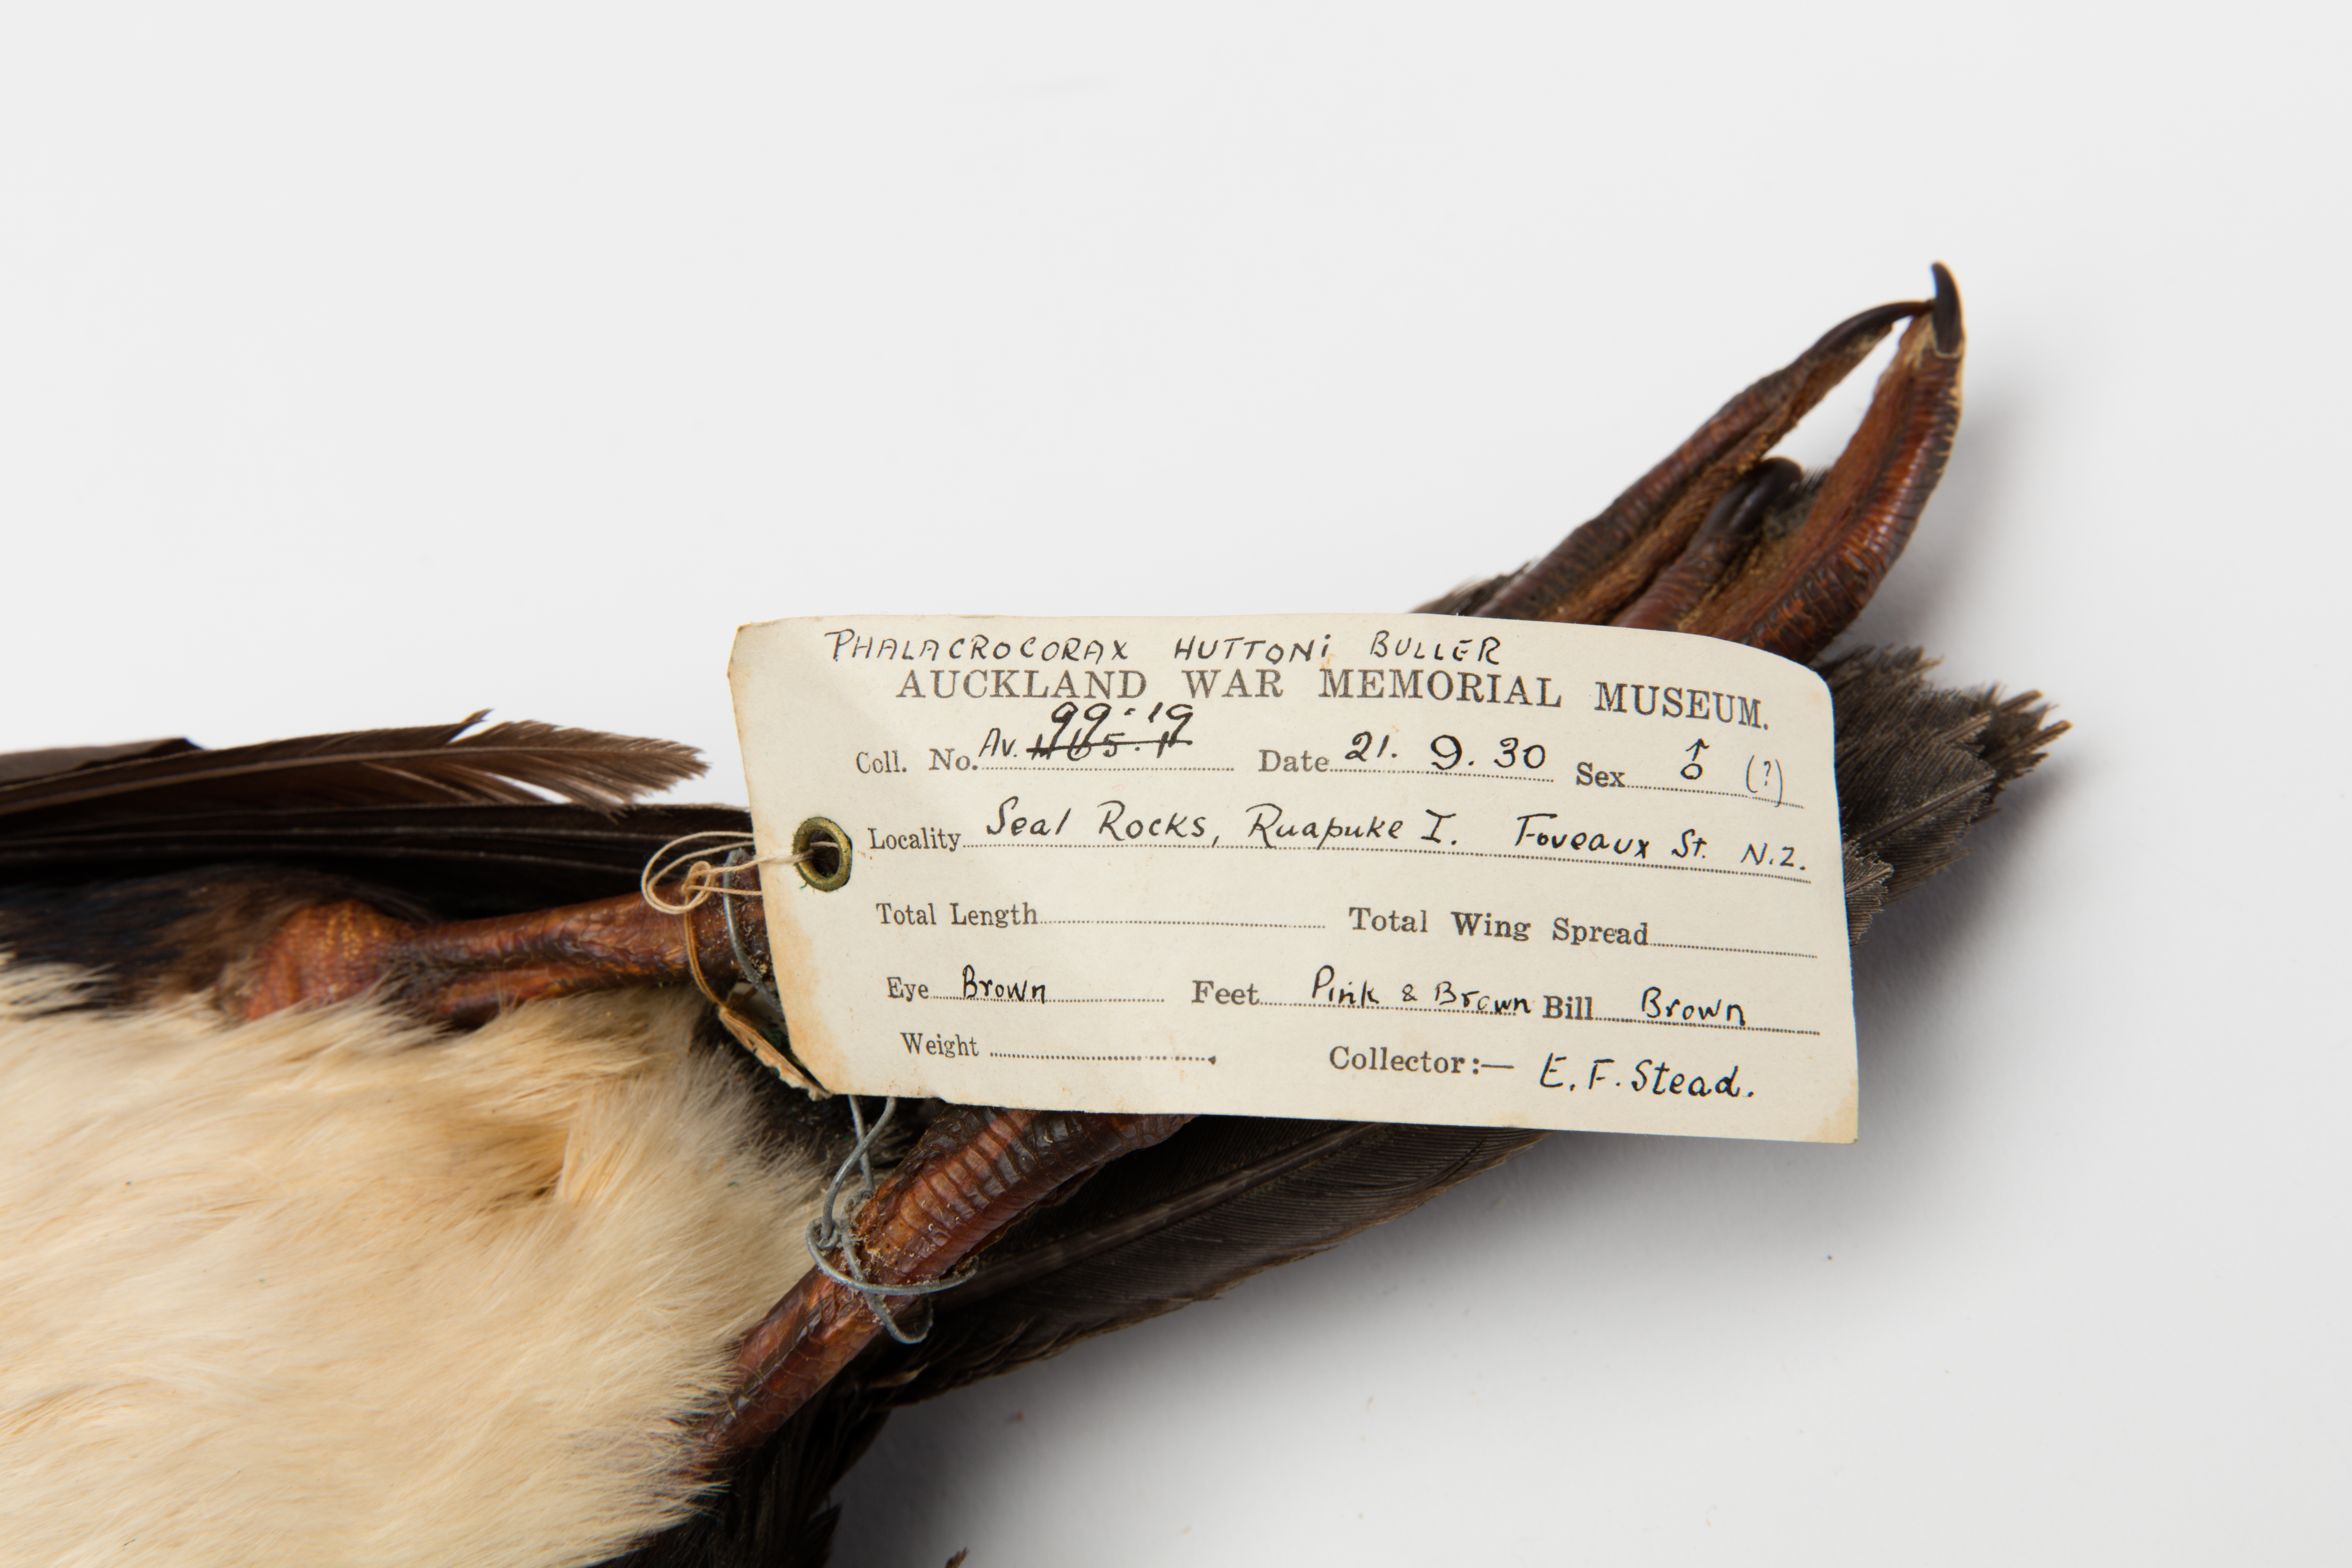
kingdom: Animalia
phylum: Chordata
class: Aves
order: Suliformes
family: Phalacrocoracidae
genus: Leucocarbo
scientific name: Leucocarbo chalconotus
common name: Stewart shag
